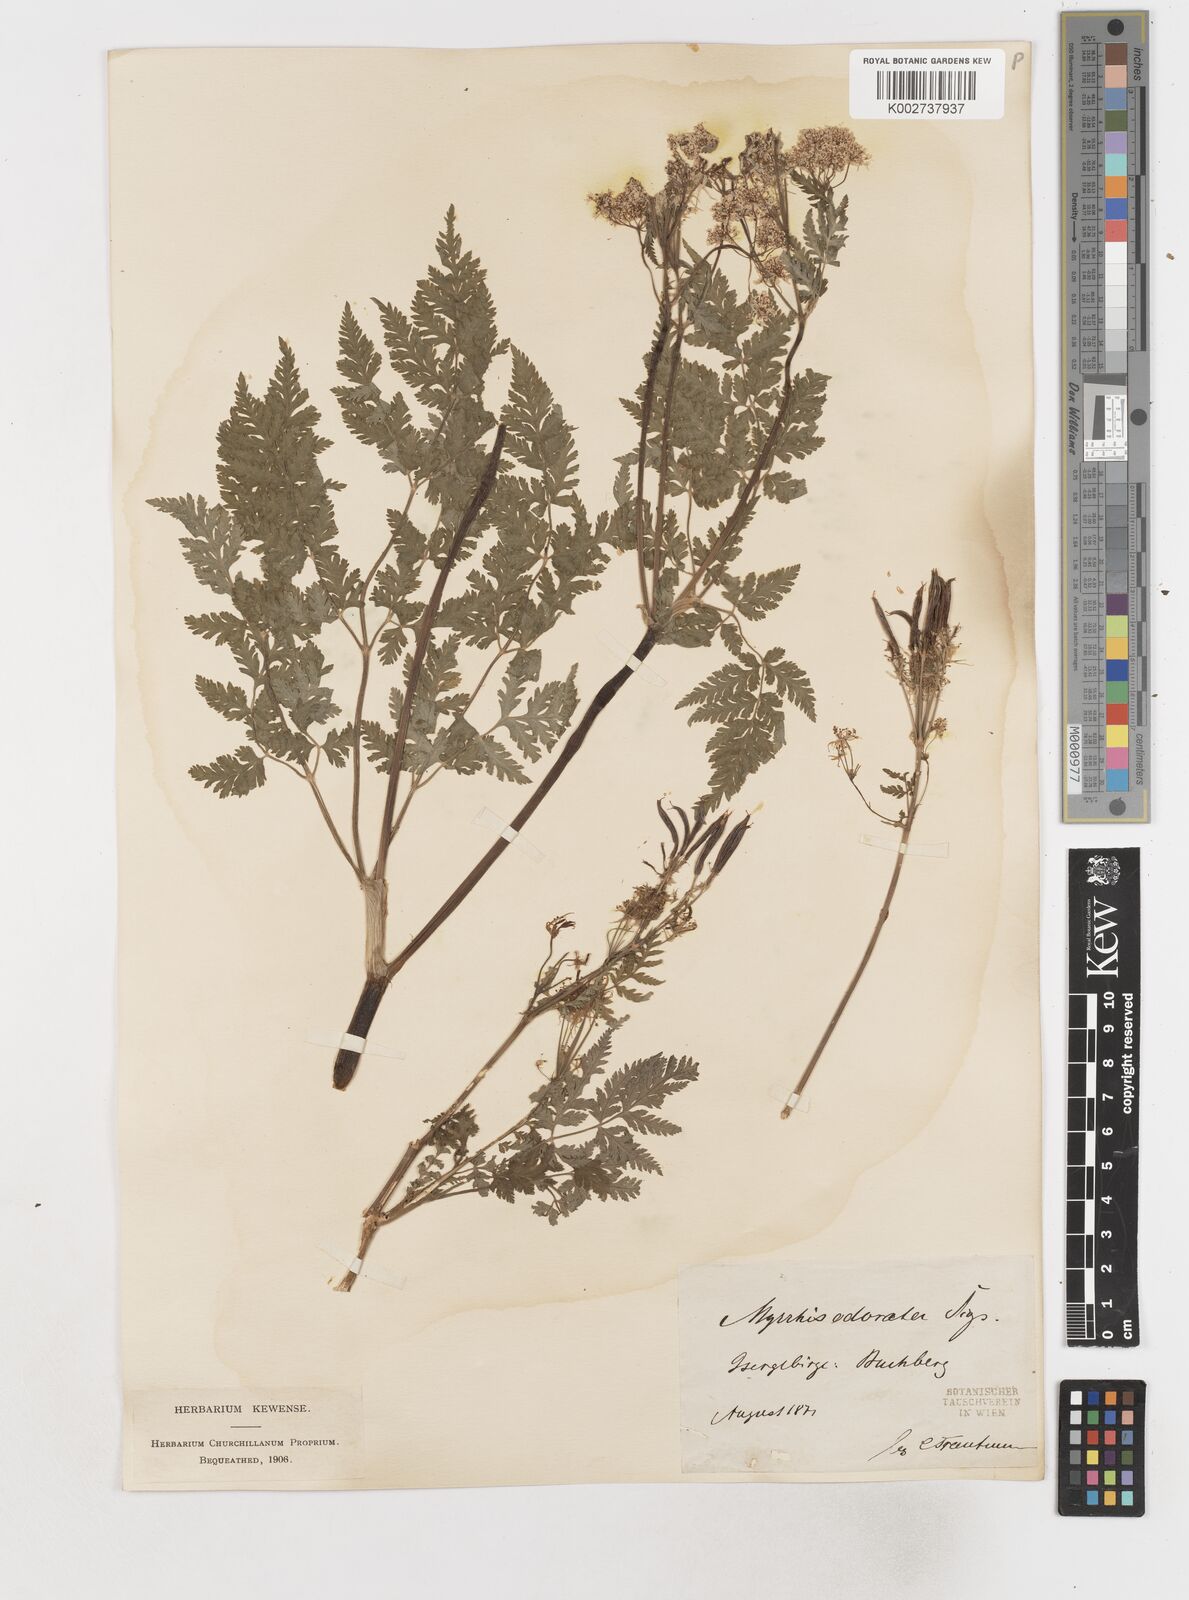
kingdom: Plantae
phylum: Tracheophyta
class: Magnoliopsida
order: Apiales
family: Apiaceae
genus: Myrrhis
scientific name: Myrrhis odorata
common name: Sweet cicely
